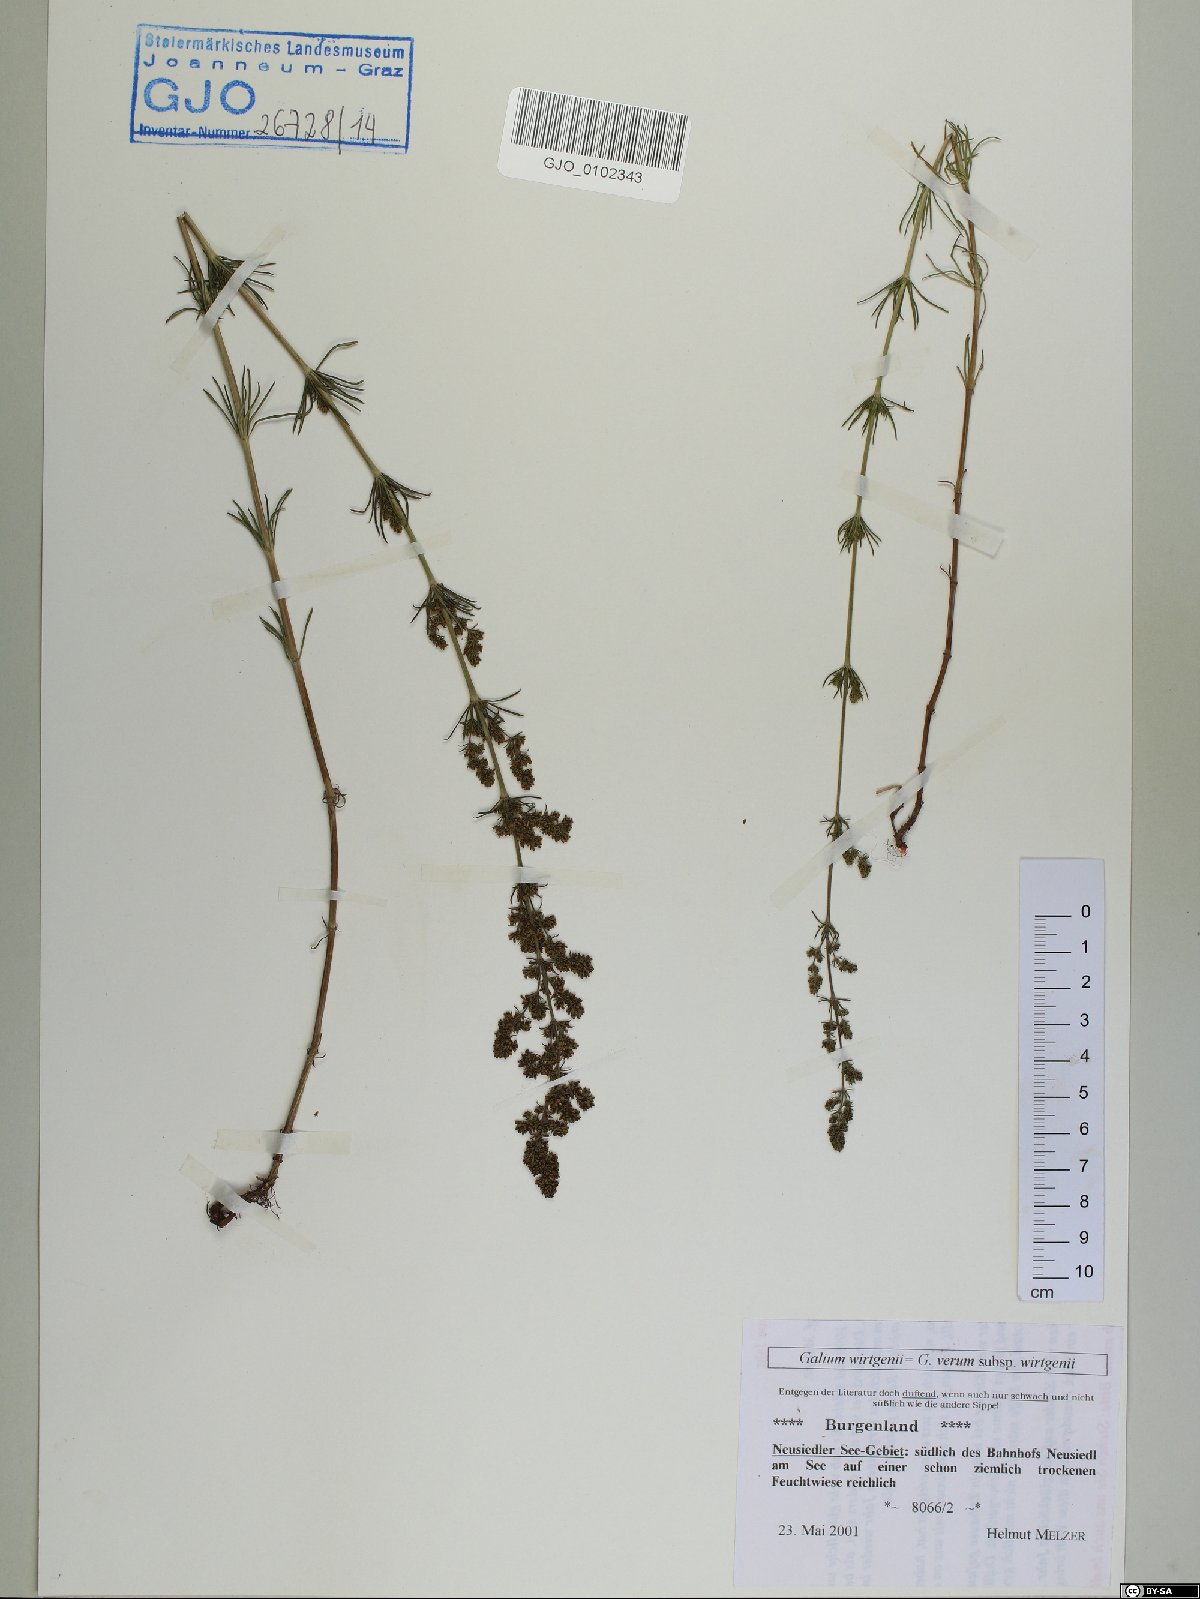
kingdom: Plantae
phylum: Tracheophyta
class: Magnoliopsida
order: Gentianales
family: Rubiaceae
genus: Galium
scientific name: Galium verum
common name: Lady's bedstraw
